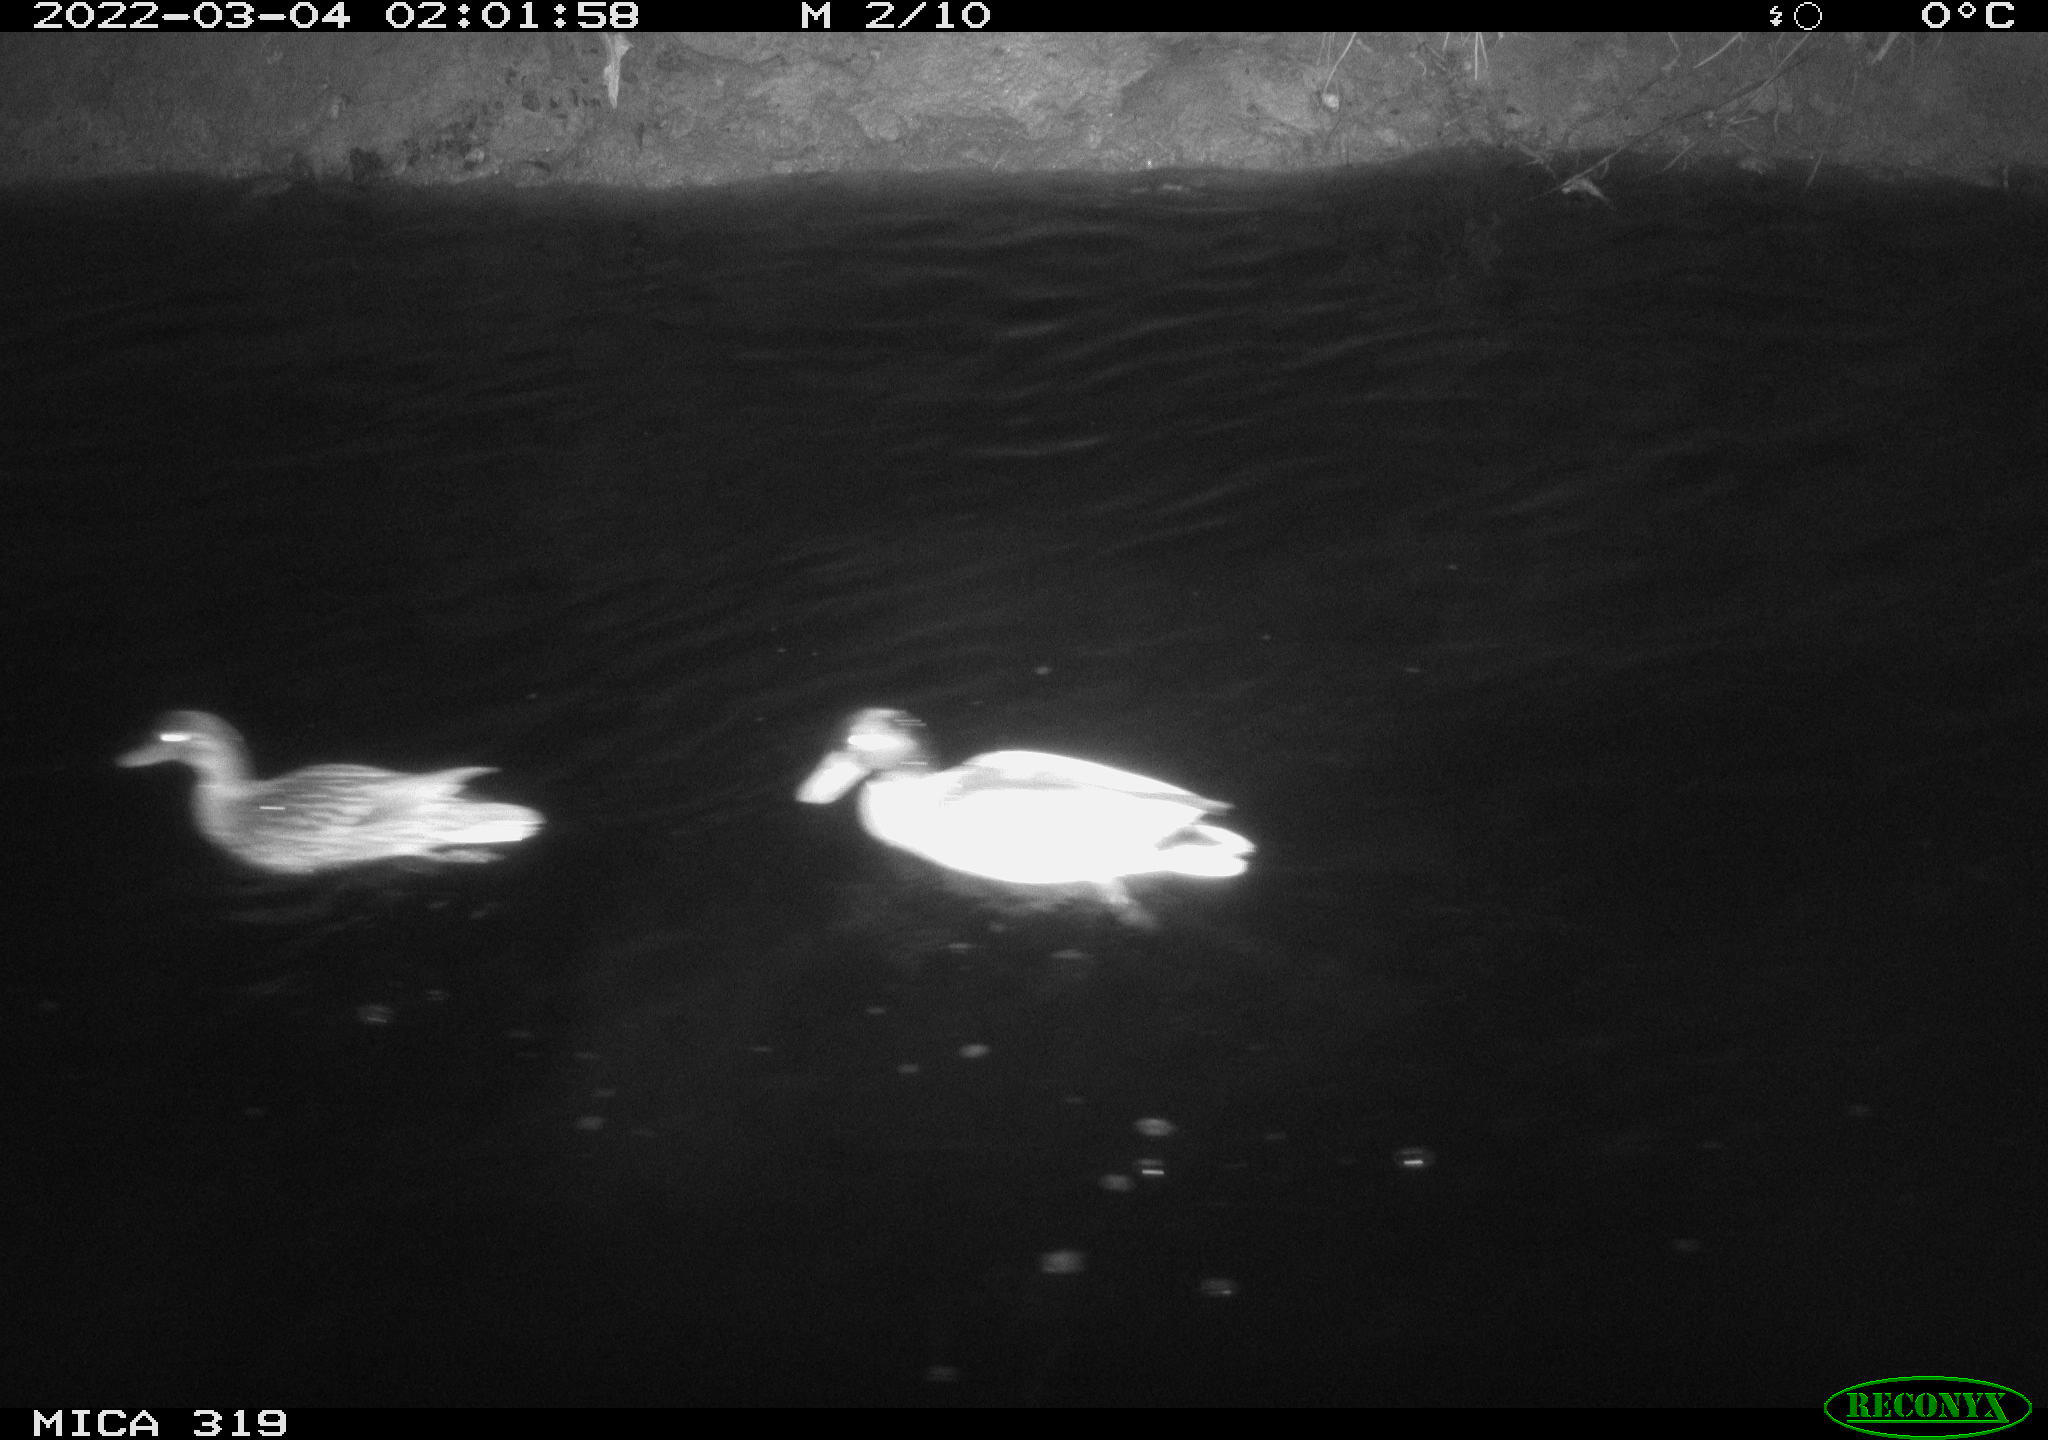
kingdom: Animalia
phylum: Chordata
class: Aves
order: Anseriformes
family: Anatidae
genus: Anas
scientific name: Anas platyrhynchos
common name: Mallard
